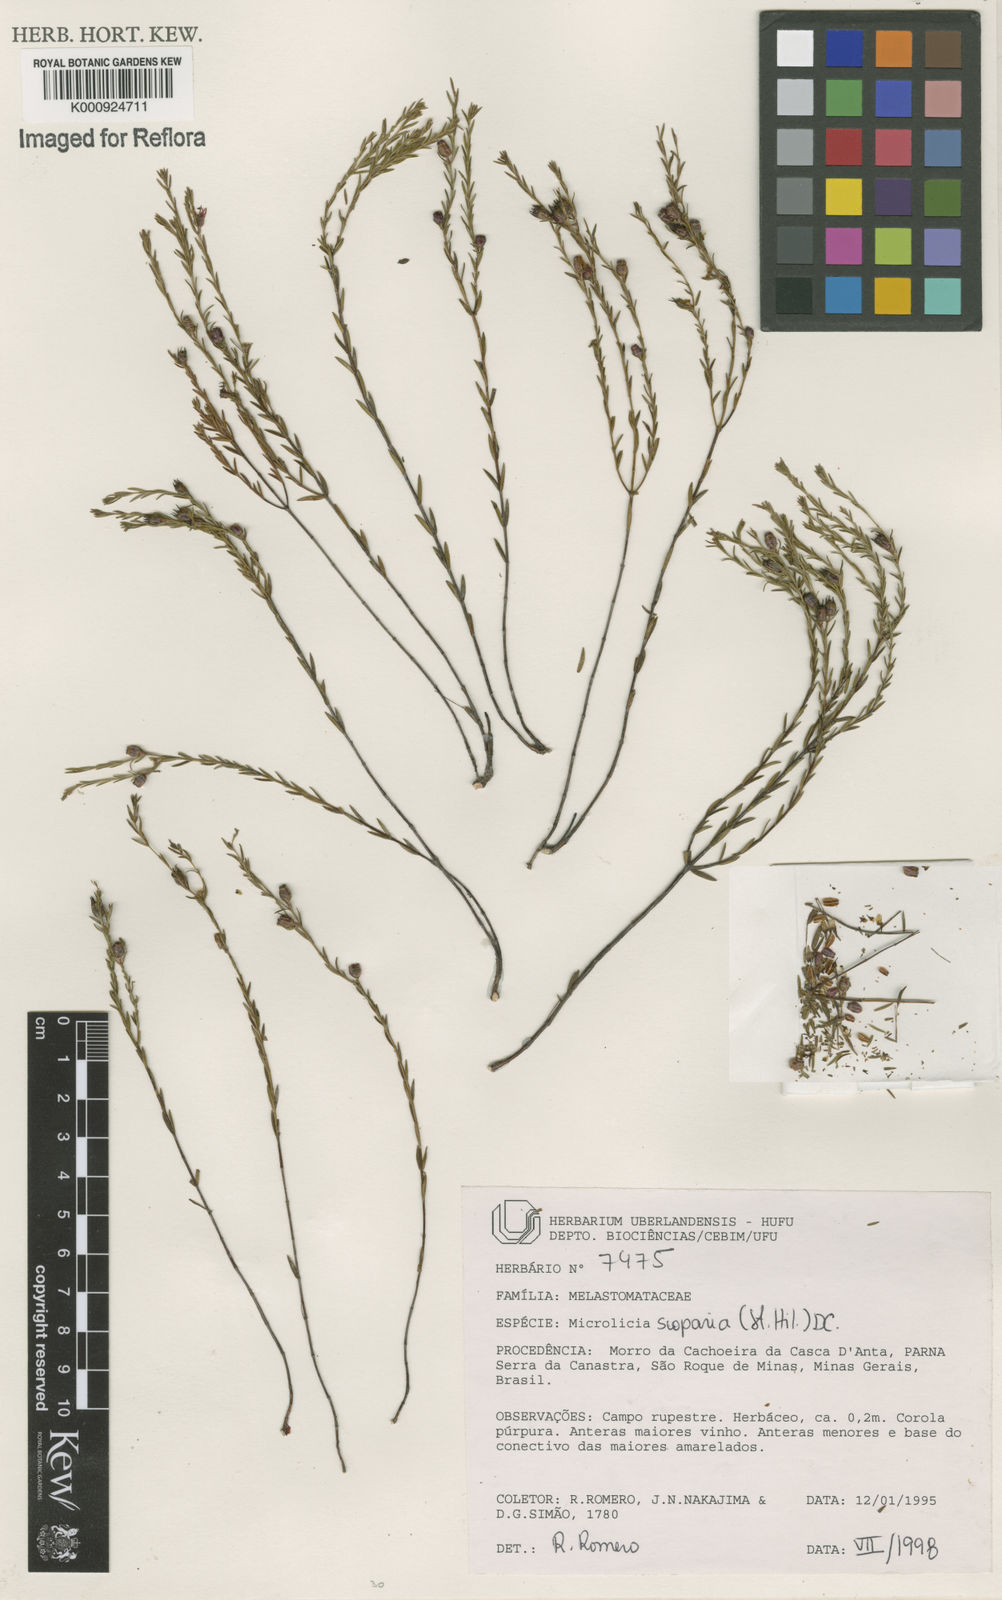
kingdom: Plantae
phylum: Tracheophyta
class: Magnoliopsida
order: Myrtales
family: Melastomataceae
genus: Microlicia
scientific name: Microlicia scoparia
